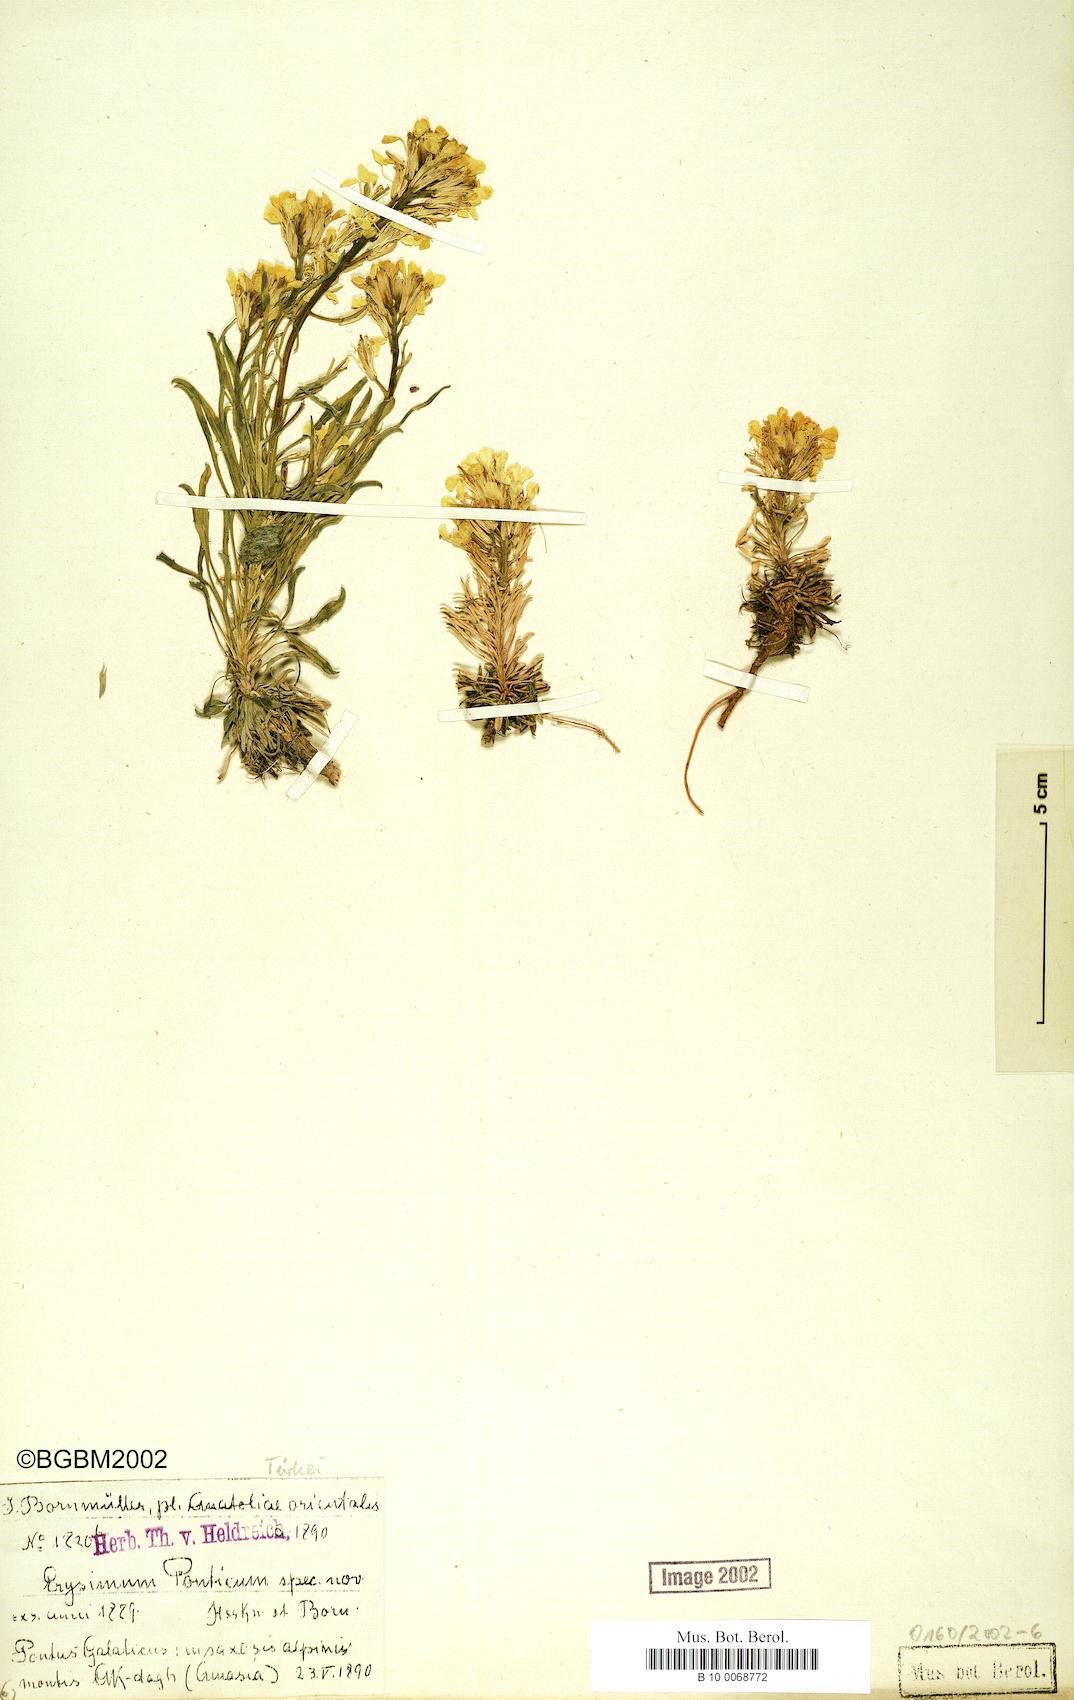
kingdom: Plantae
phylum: Tracheophyta
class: Magnoliopsida
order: Brassicales
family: Brassicaceae
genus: Erysimum
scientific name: Erysimum ponticum
